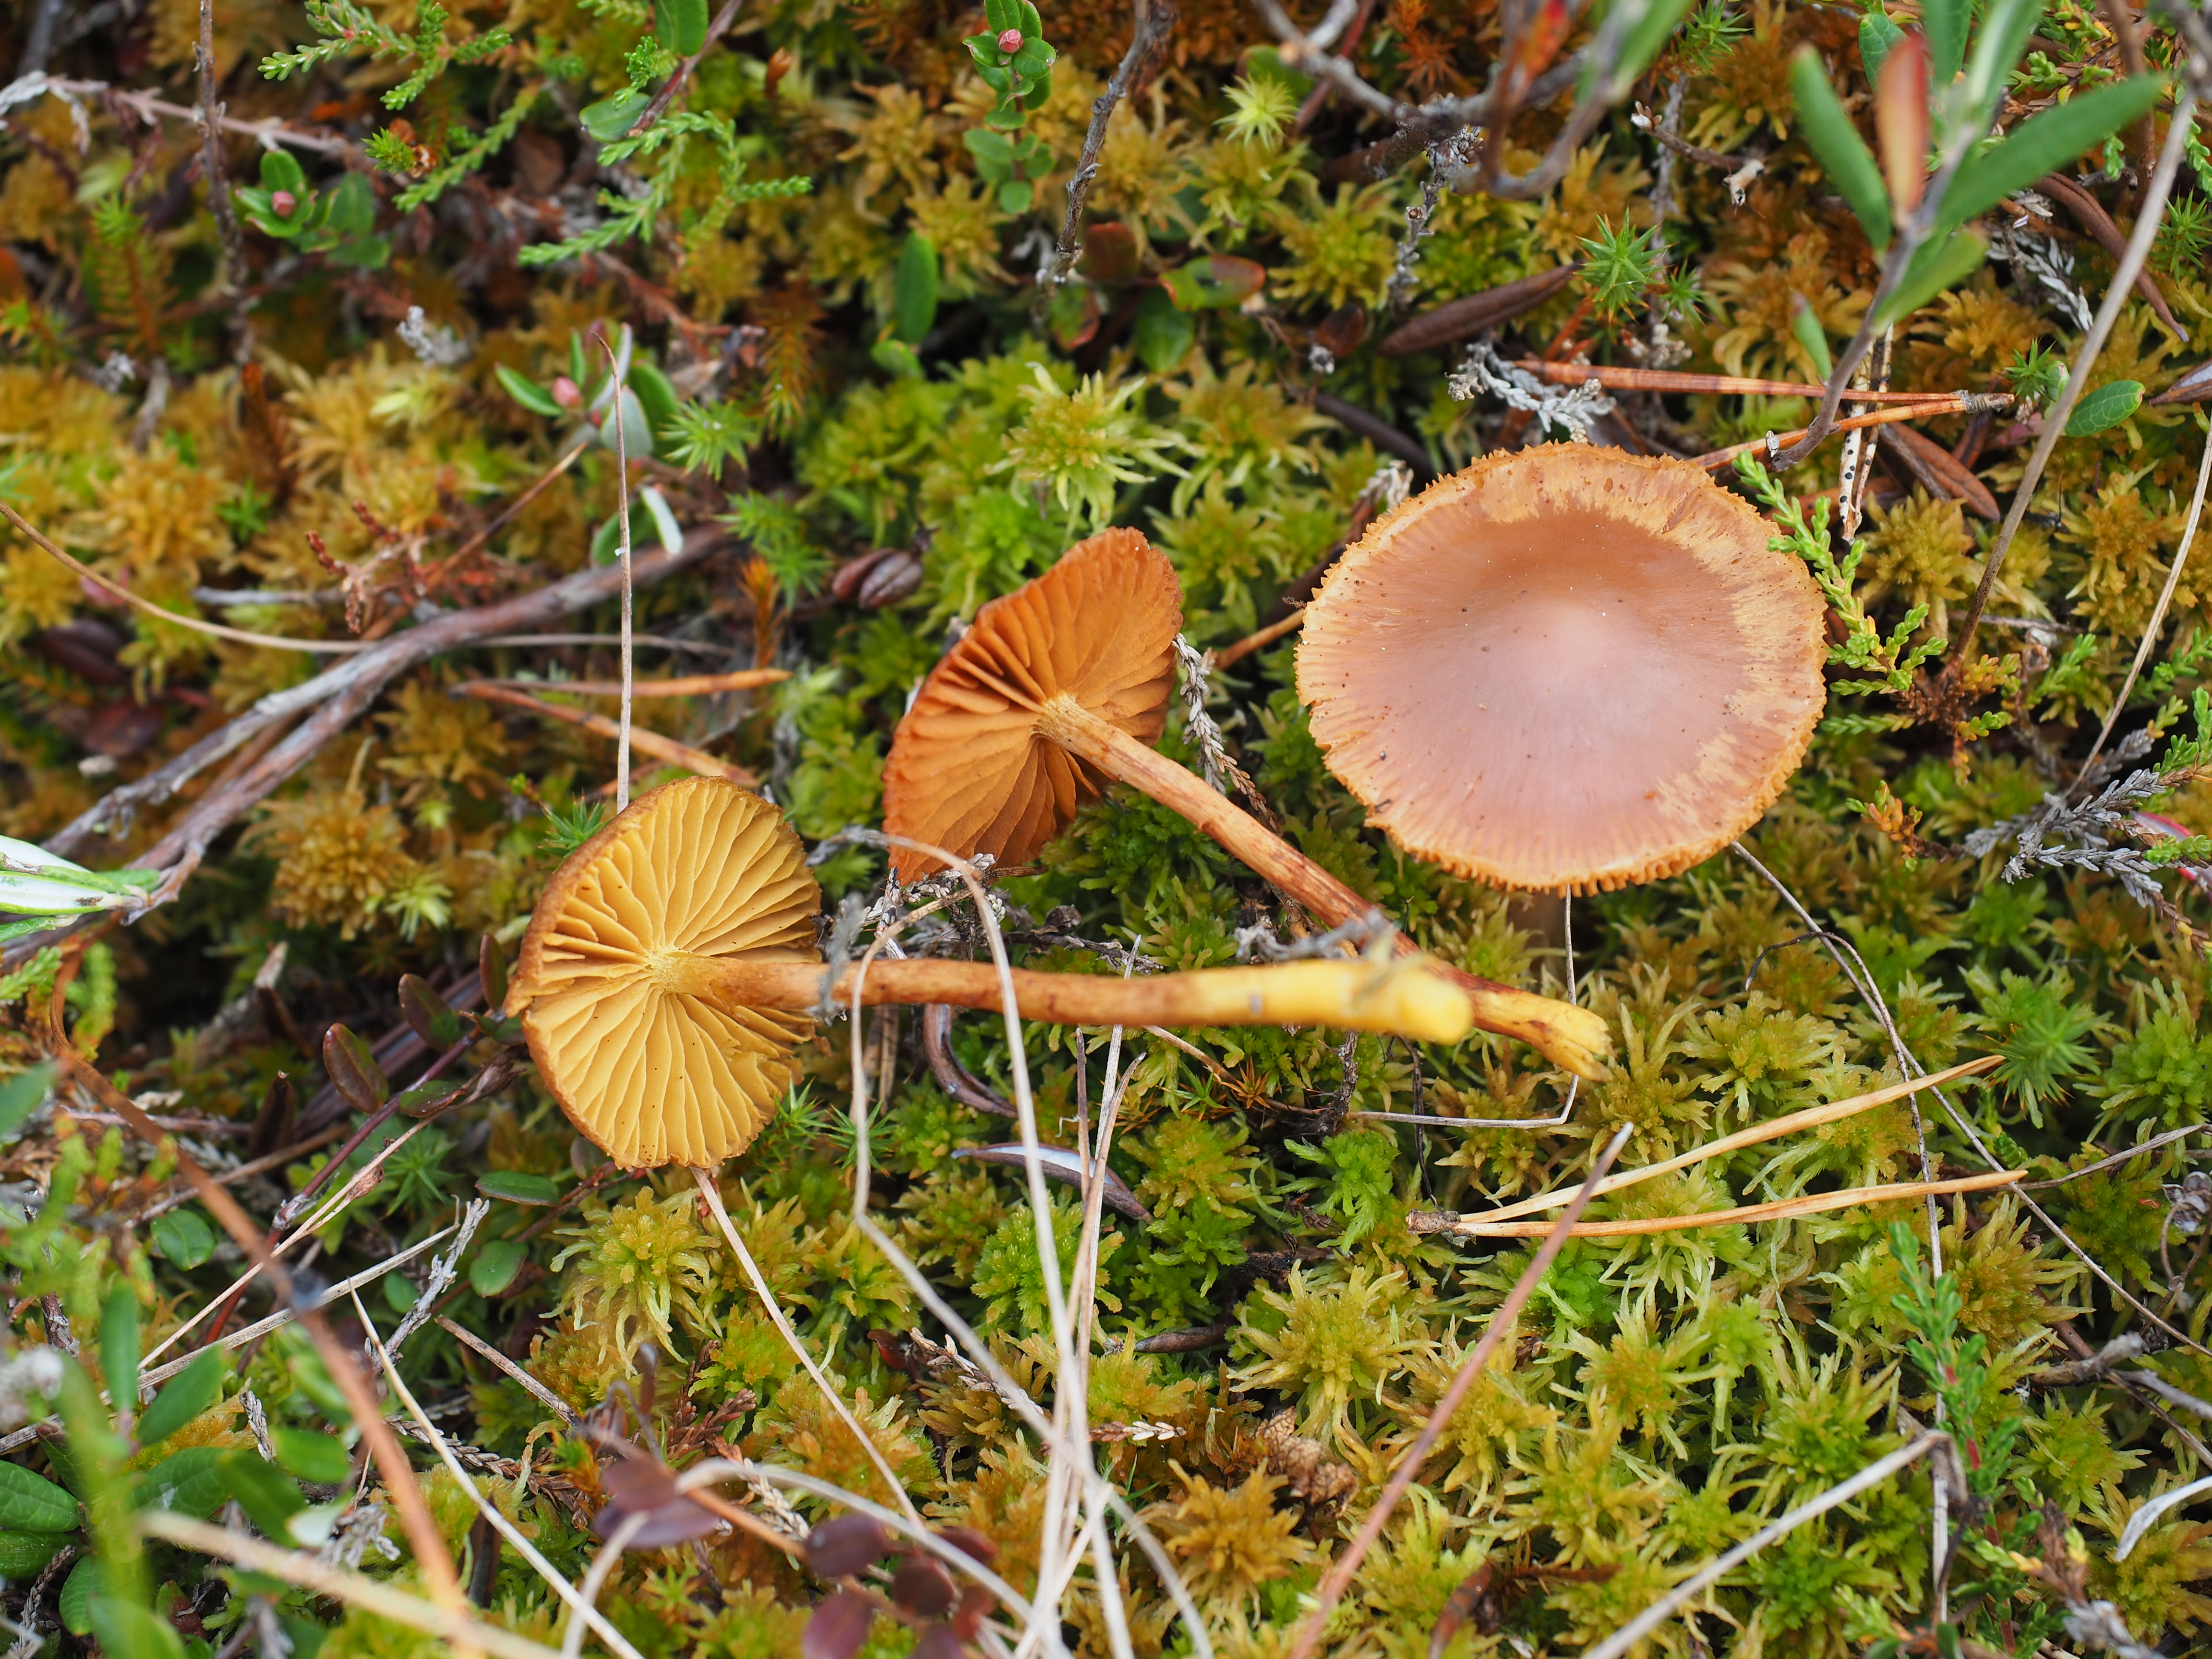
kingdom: Fungi
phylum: Basidiomycota
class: Agaricomycetes
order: Agaricales
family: Cortinariaceae
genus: Cortinarius
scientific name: Cortinarius croceus
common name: Saffron webcap
